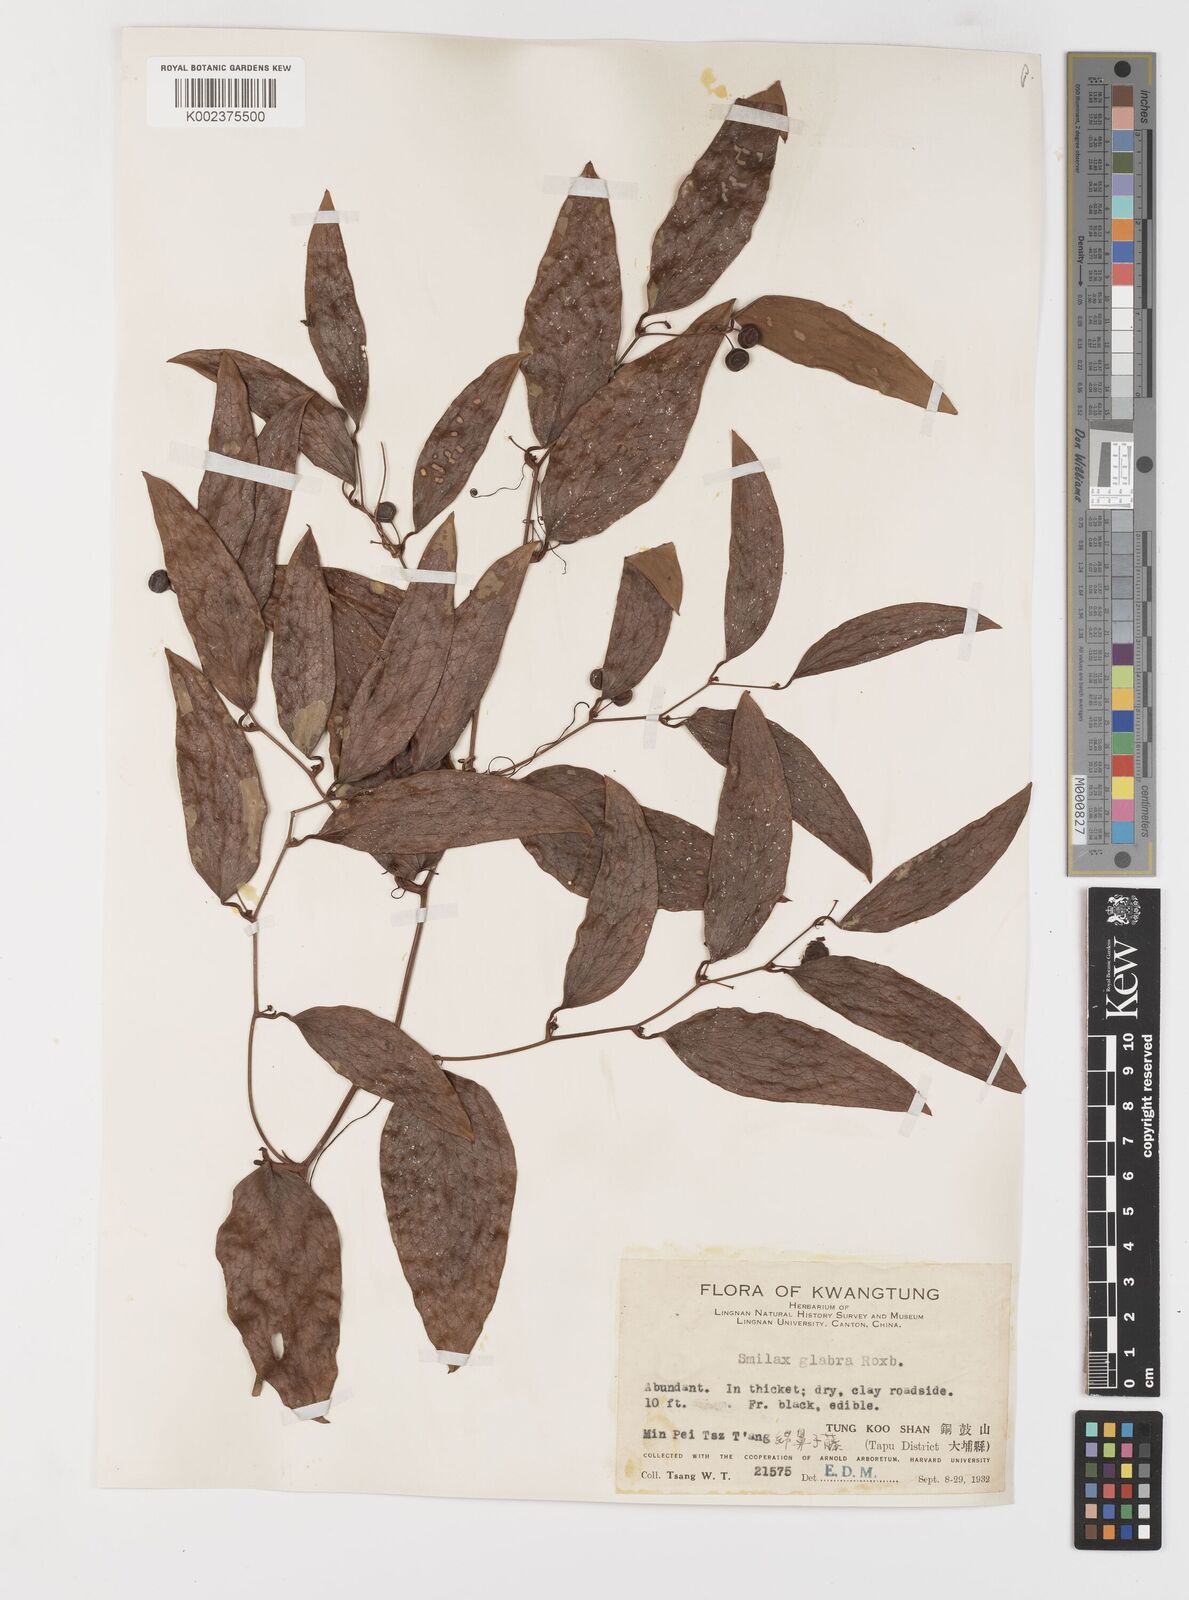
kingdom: Plantae
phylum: Tracheophyta
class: Liliopsida
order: Liliales
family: Smilacaceae
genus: Smilax
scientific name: Smilax glabra
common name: Chinese smilax
